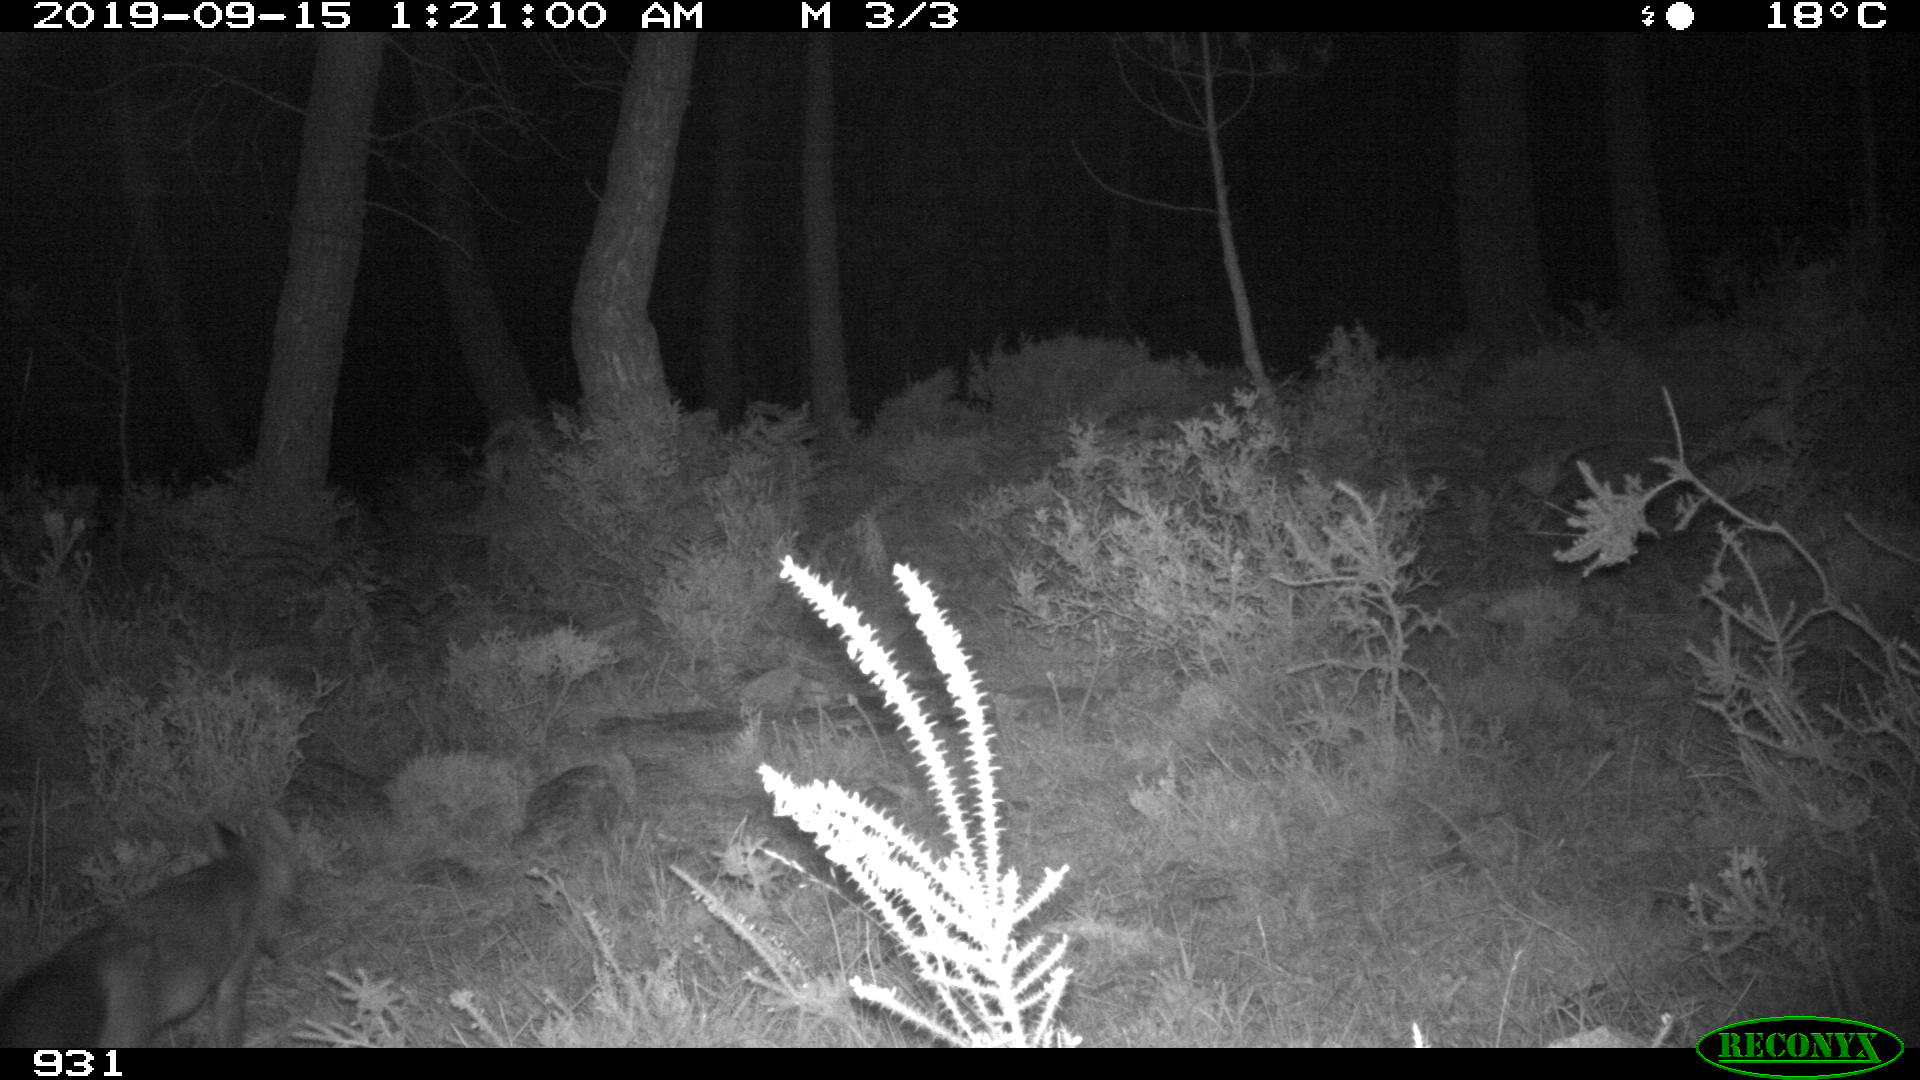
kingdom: Animalia
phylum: Chordata
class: Mammalia
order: Carnivora
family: Canidae
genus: Vulpes
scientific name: Vulpes vulpes
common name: Red fox
